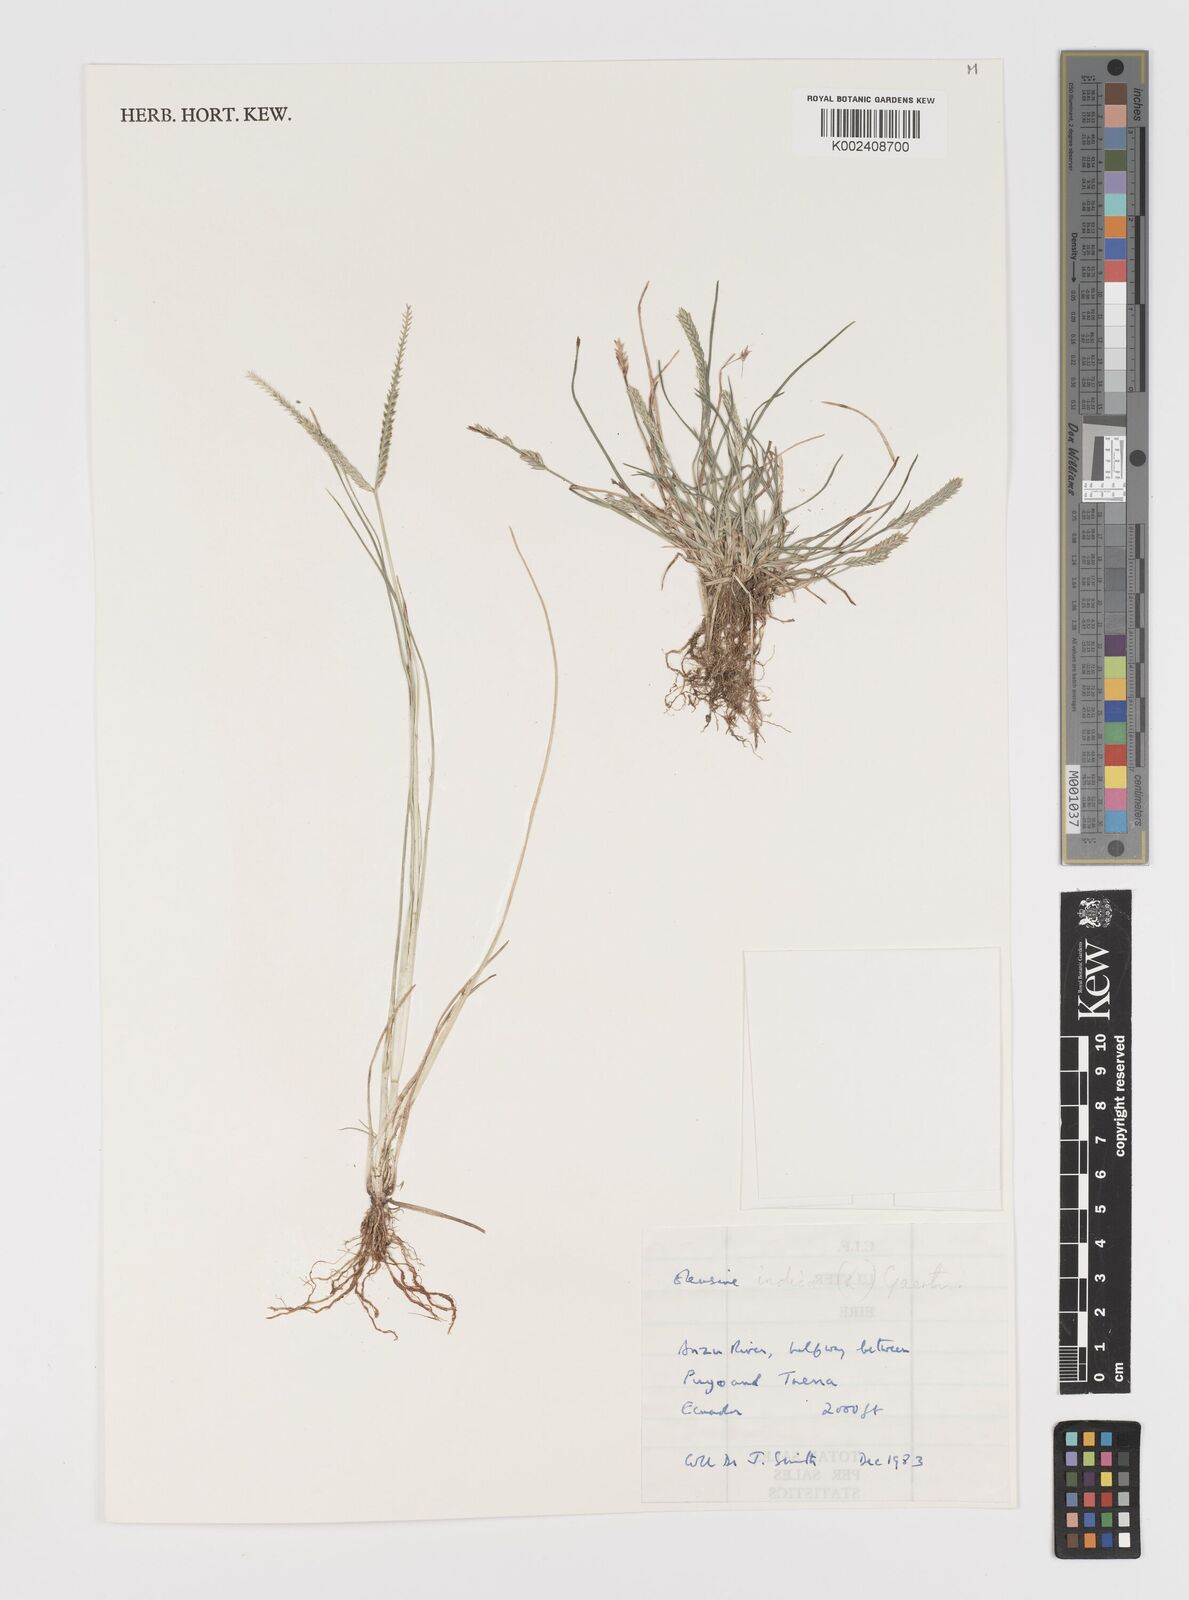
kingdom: Plantae
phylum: Tracheophyta
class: Liliopsida
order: Poales
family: Poaceae
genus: Eleusine
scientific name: Eleusine indica
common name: Yard-grass
